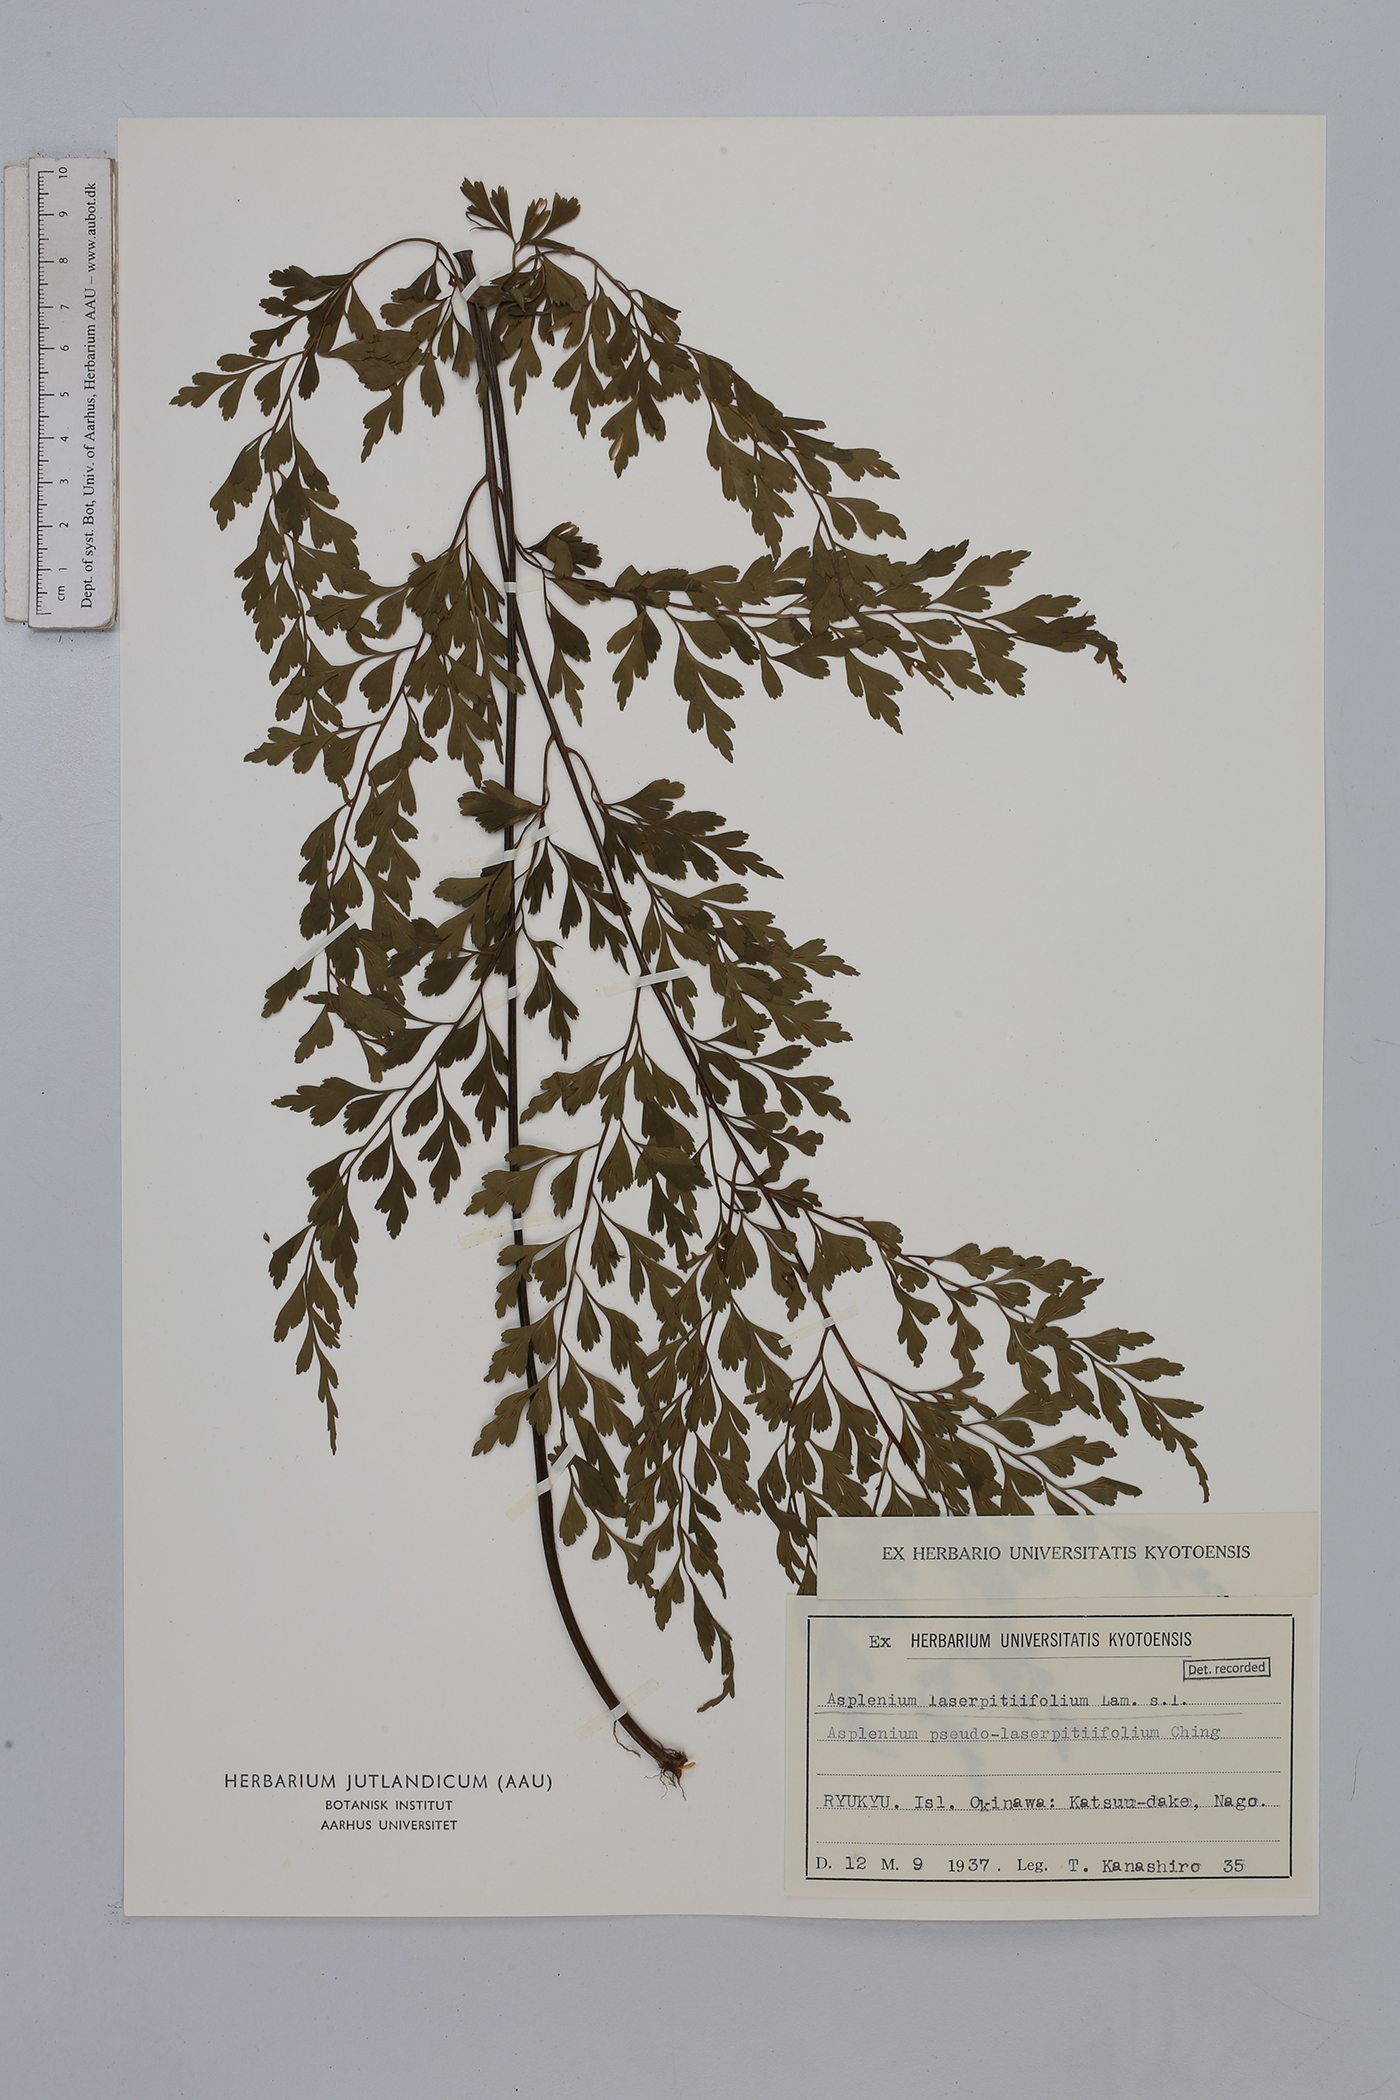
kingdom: Plantae
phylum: Tracheophyta
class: Polypodiopsida
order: Polypodiales
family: Aspleniaceae
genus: Asplenium
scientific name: Asplenium laserpitiifolium
